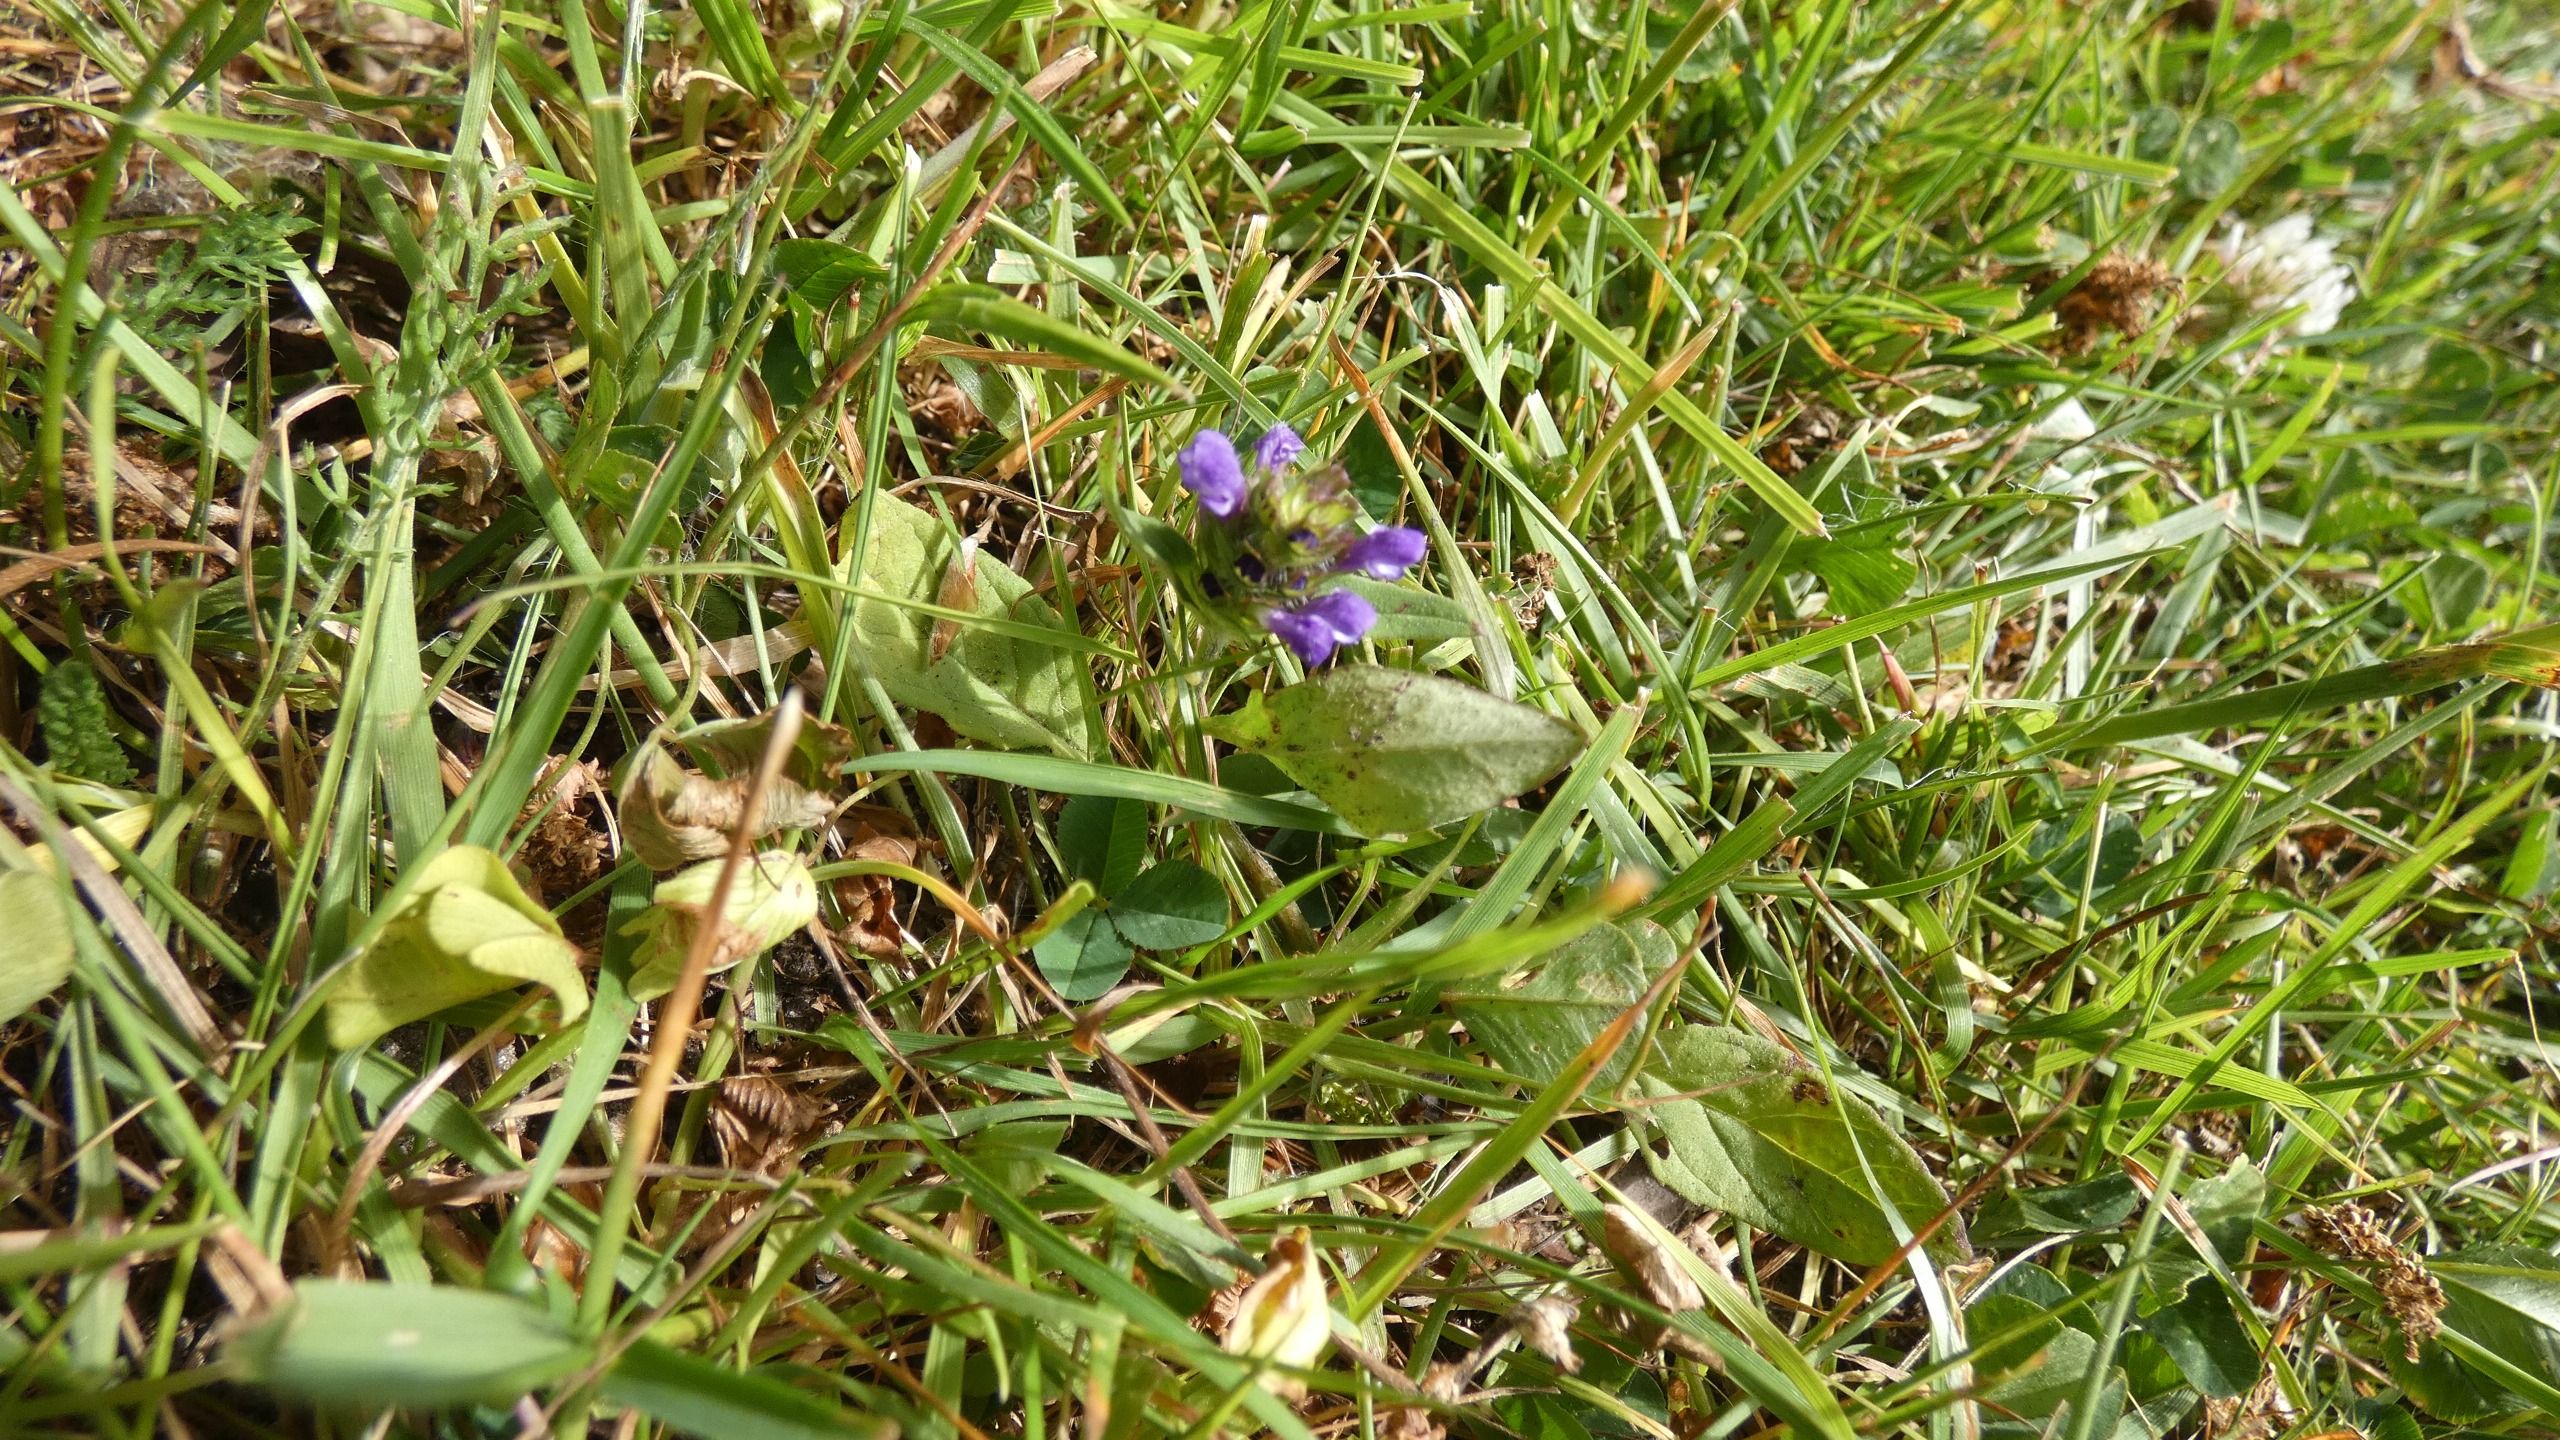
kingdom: Plantae
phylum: Tracheophyta
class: Magnoliopsida
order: Lamiales
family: Lamiaceae
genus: Prunella
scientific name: Prunella vulgaris
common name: Almindelig brunelle
